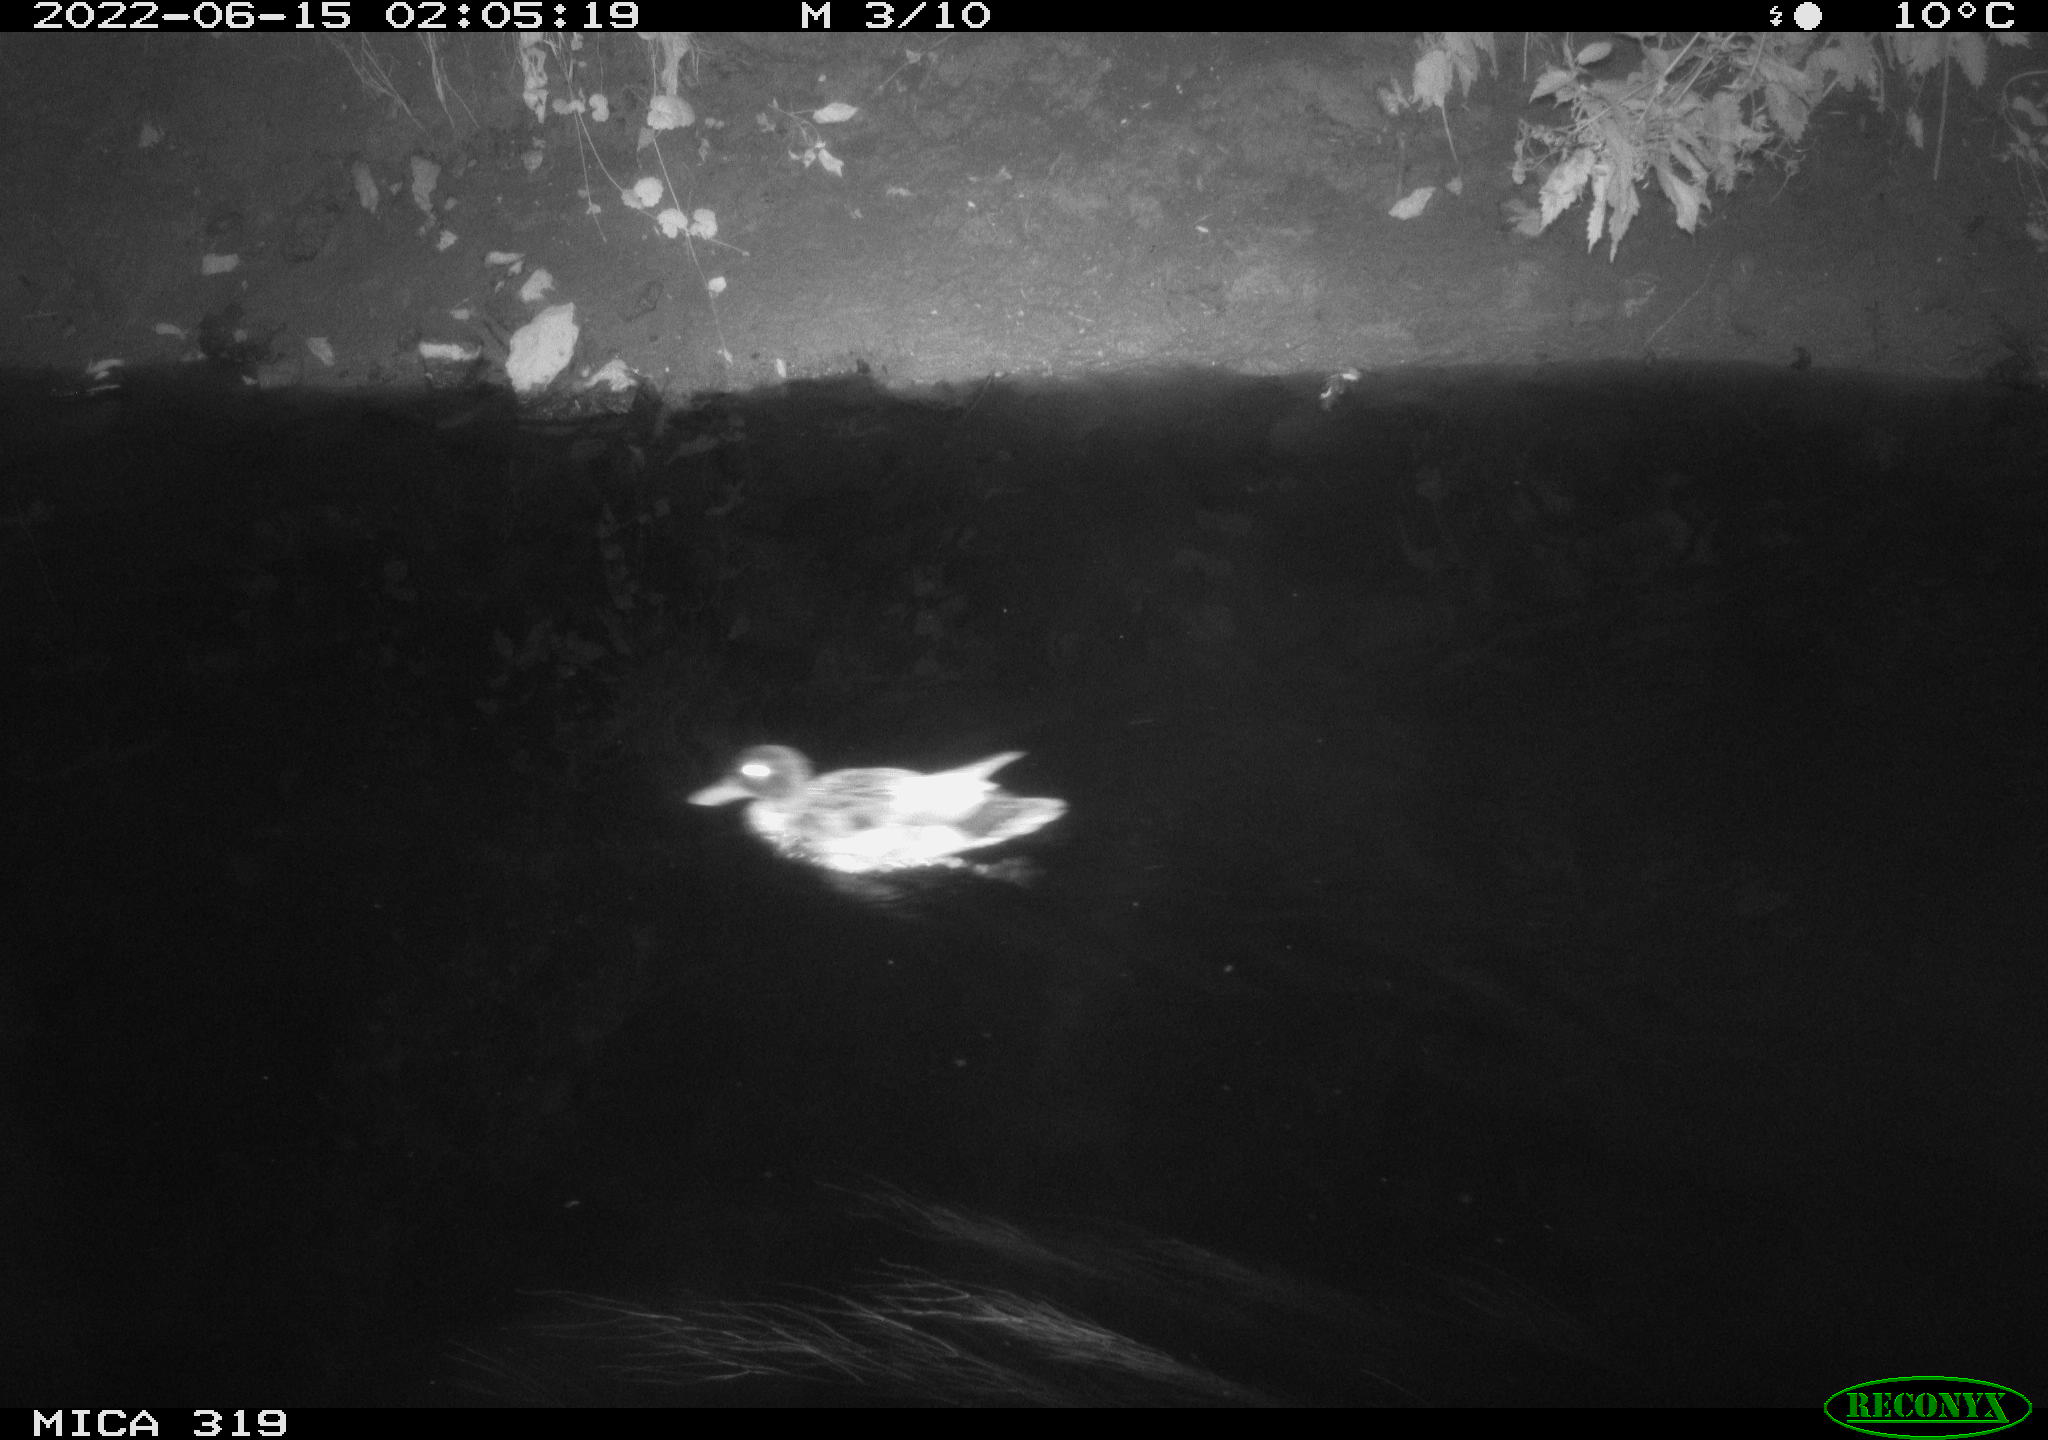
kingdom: Animalia
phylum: Chordata
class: Aves
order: Anseriformes
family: Anatidae
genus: Anas
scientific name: Anas
